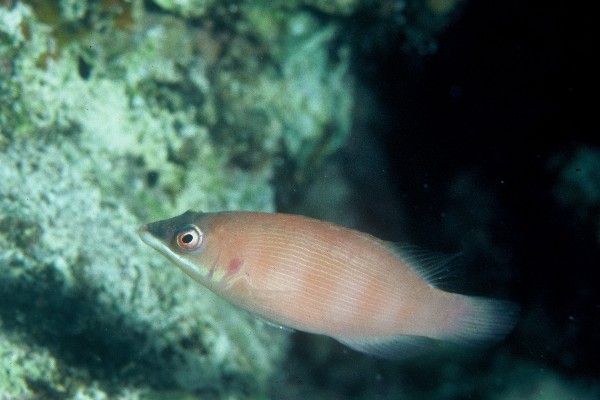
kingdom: Animalia
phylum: Chordata
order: Perciformes
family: Labridae
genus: Pseudocheilinus
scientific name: Pseudocheilinus evanidus
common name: Disappearing wrasse
